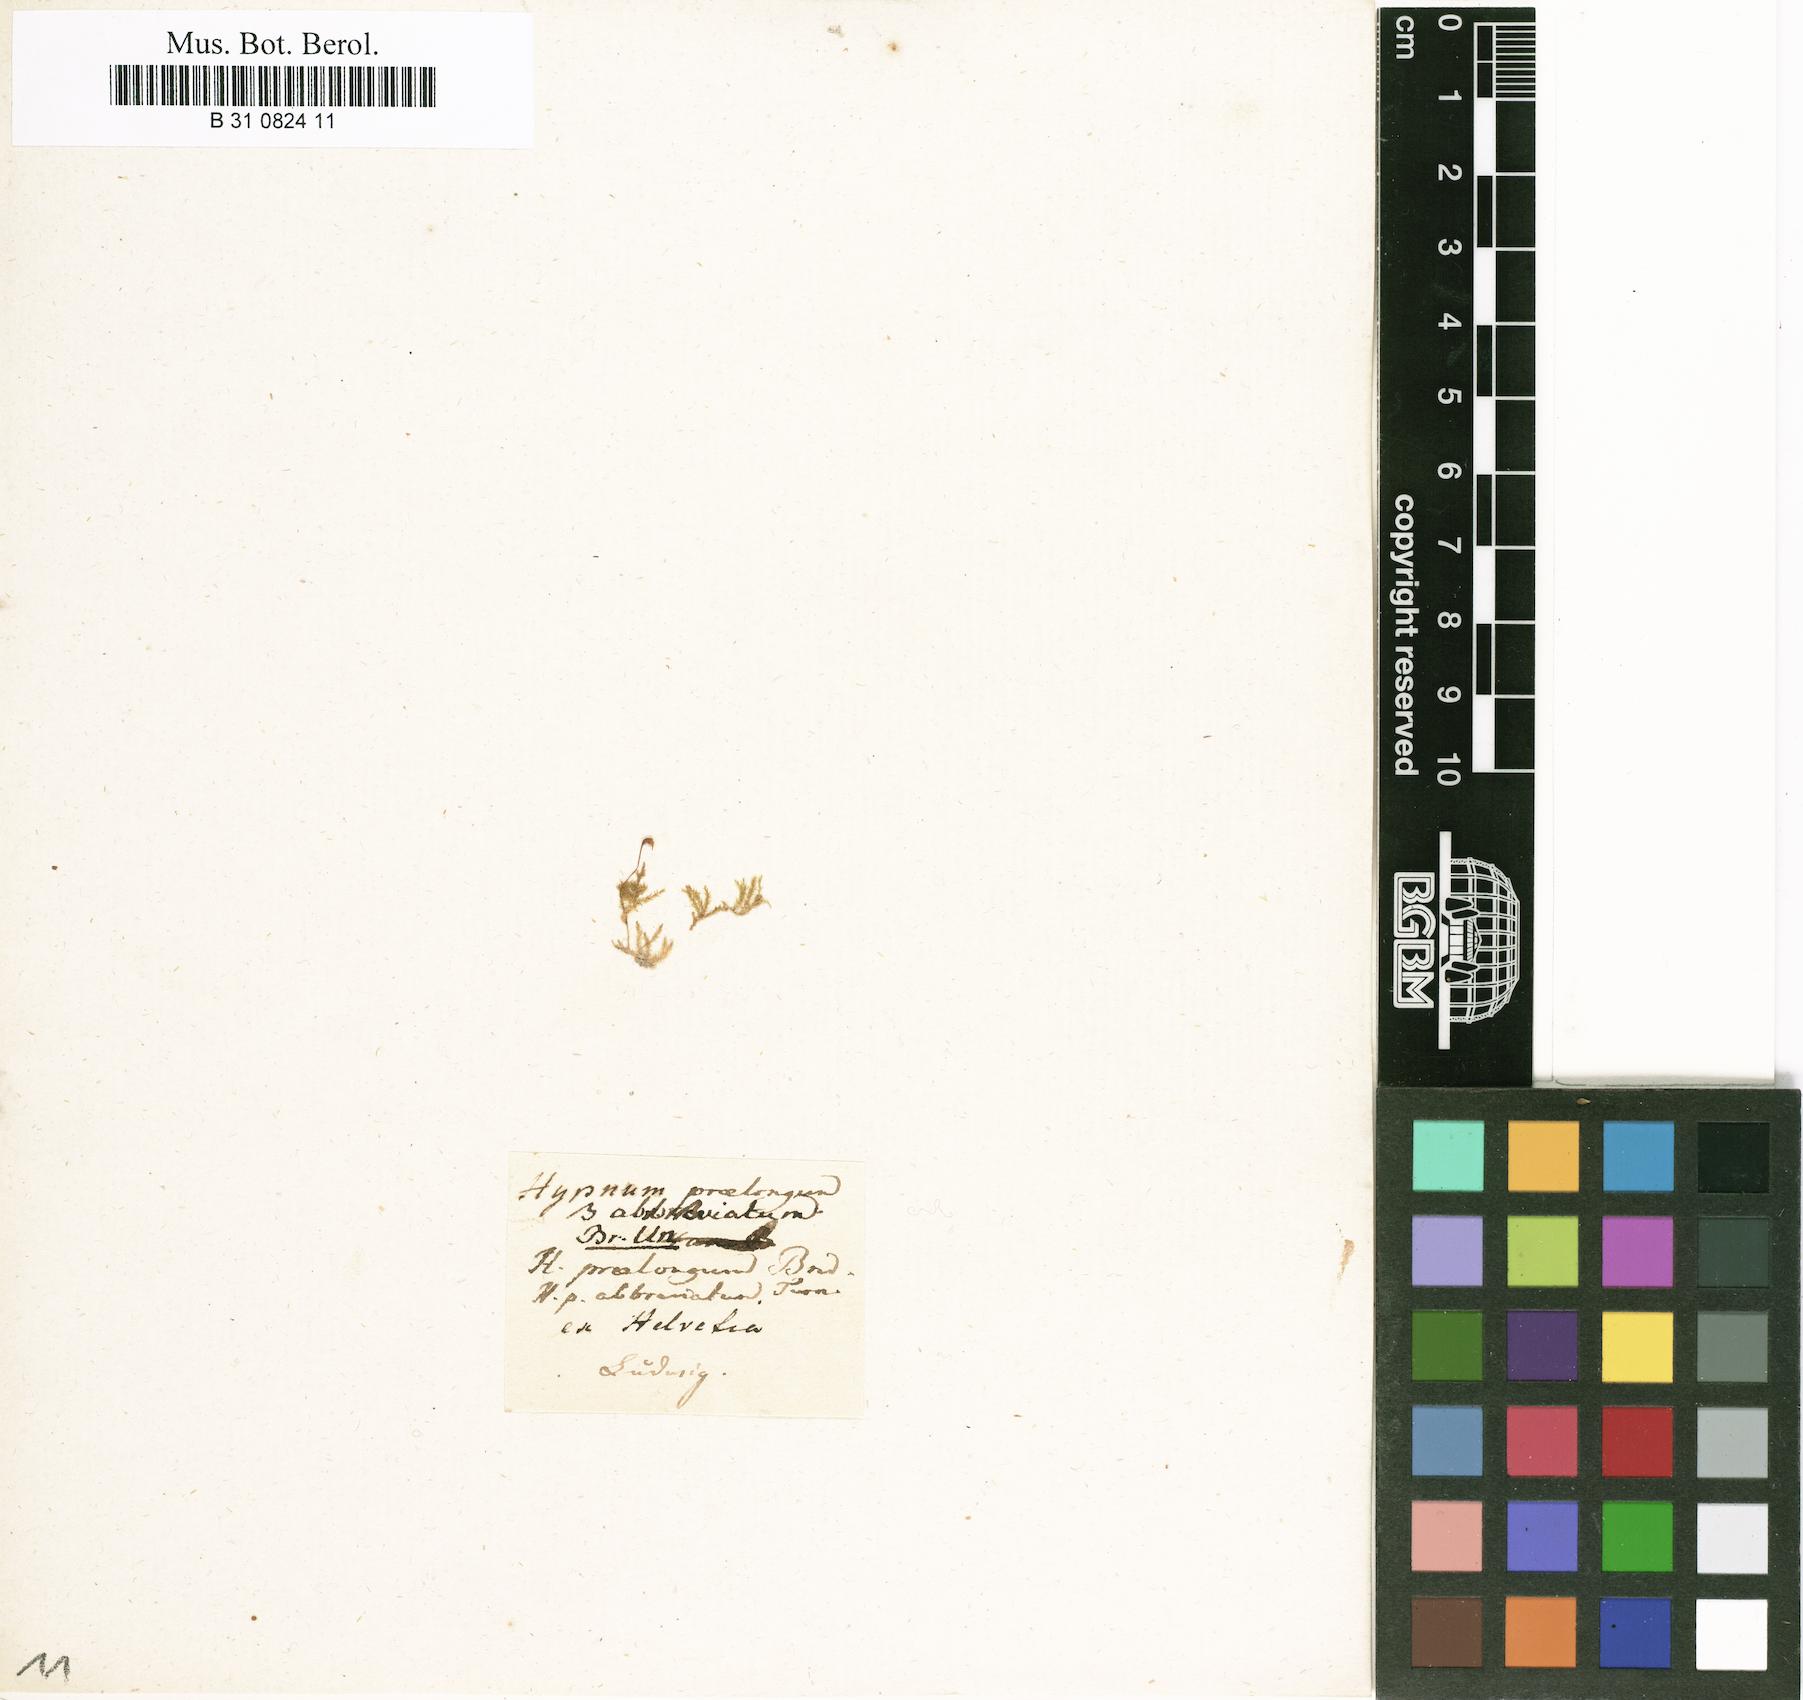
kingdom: Plantae
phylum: Bryophyta
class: Bryopsida
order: Hypnales
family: Brachytheciaceae
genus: Kindbergia
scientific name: Kindbergia praelonga
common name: Slender beaked moss
